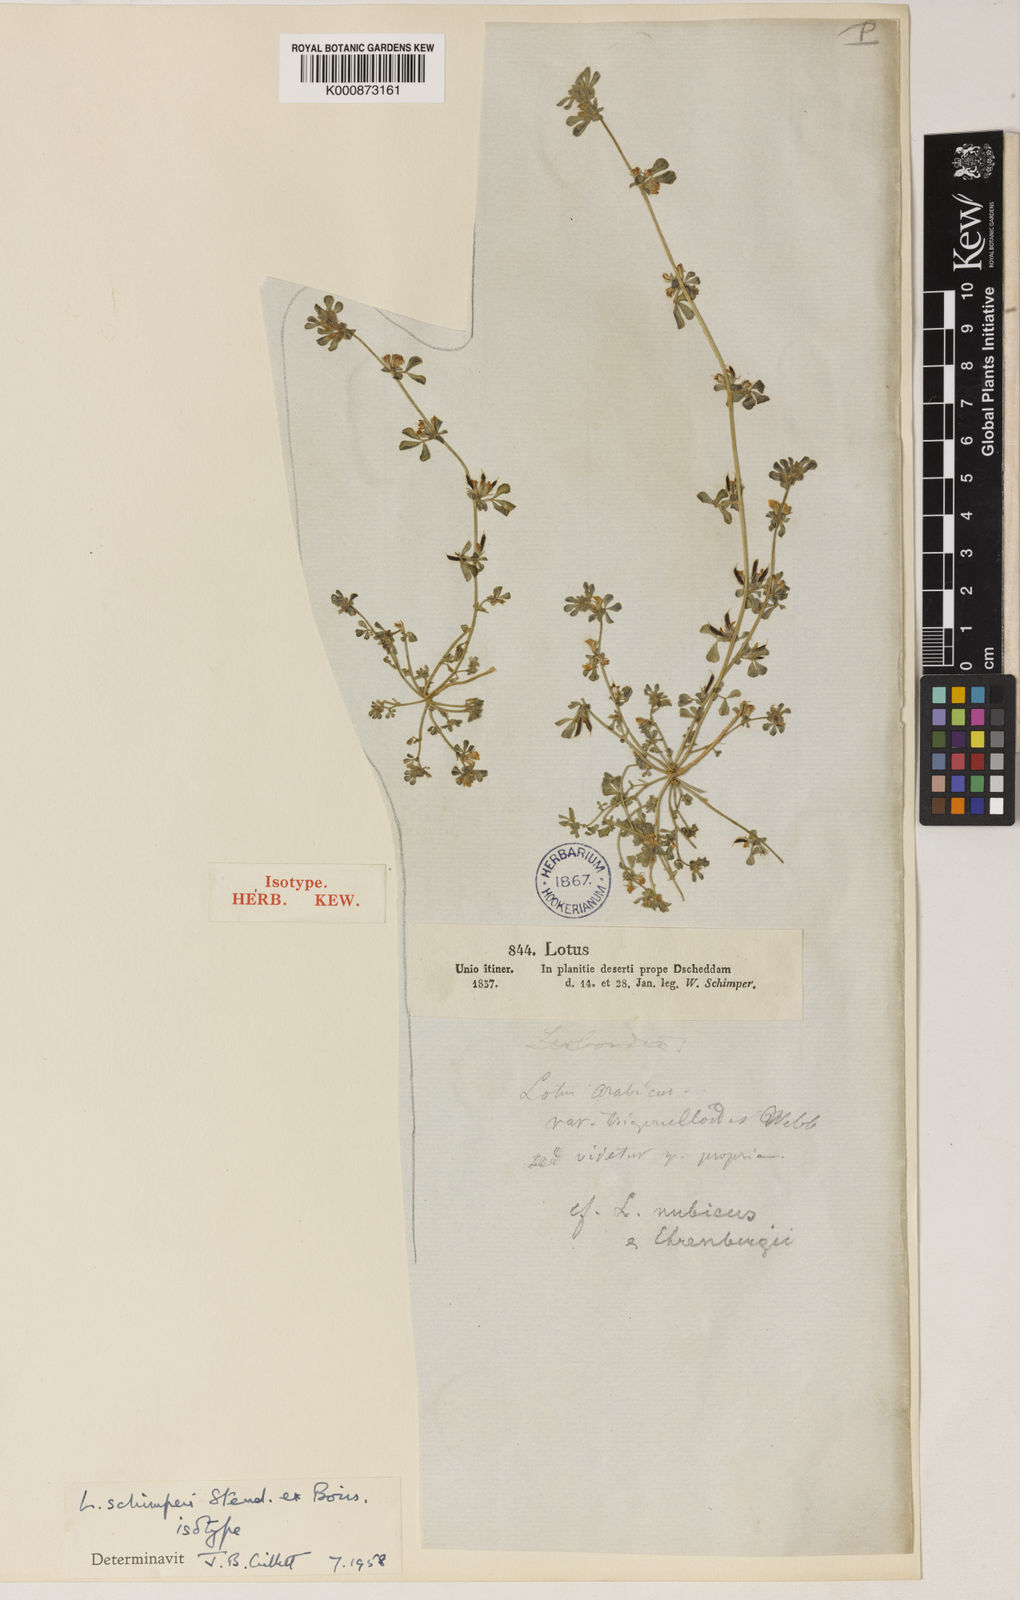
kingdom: Plantae
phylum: Tracheophyta
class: Magnoliopsida
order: Fabales
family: Fabaceae
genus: Lotus
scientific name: Lotus
